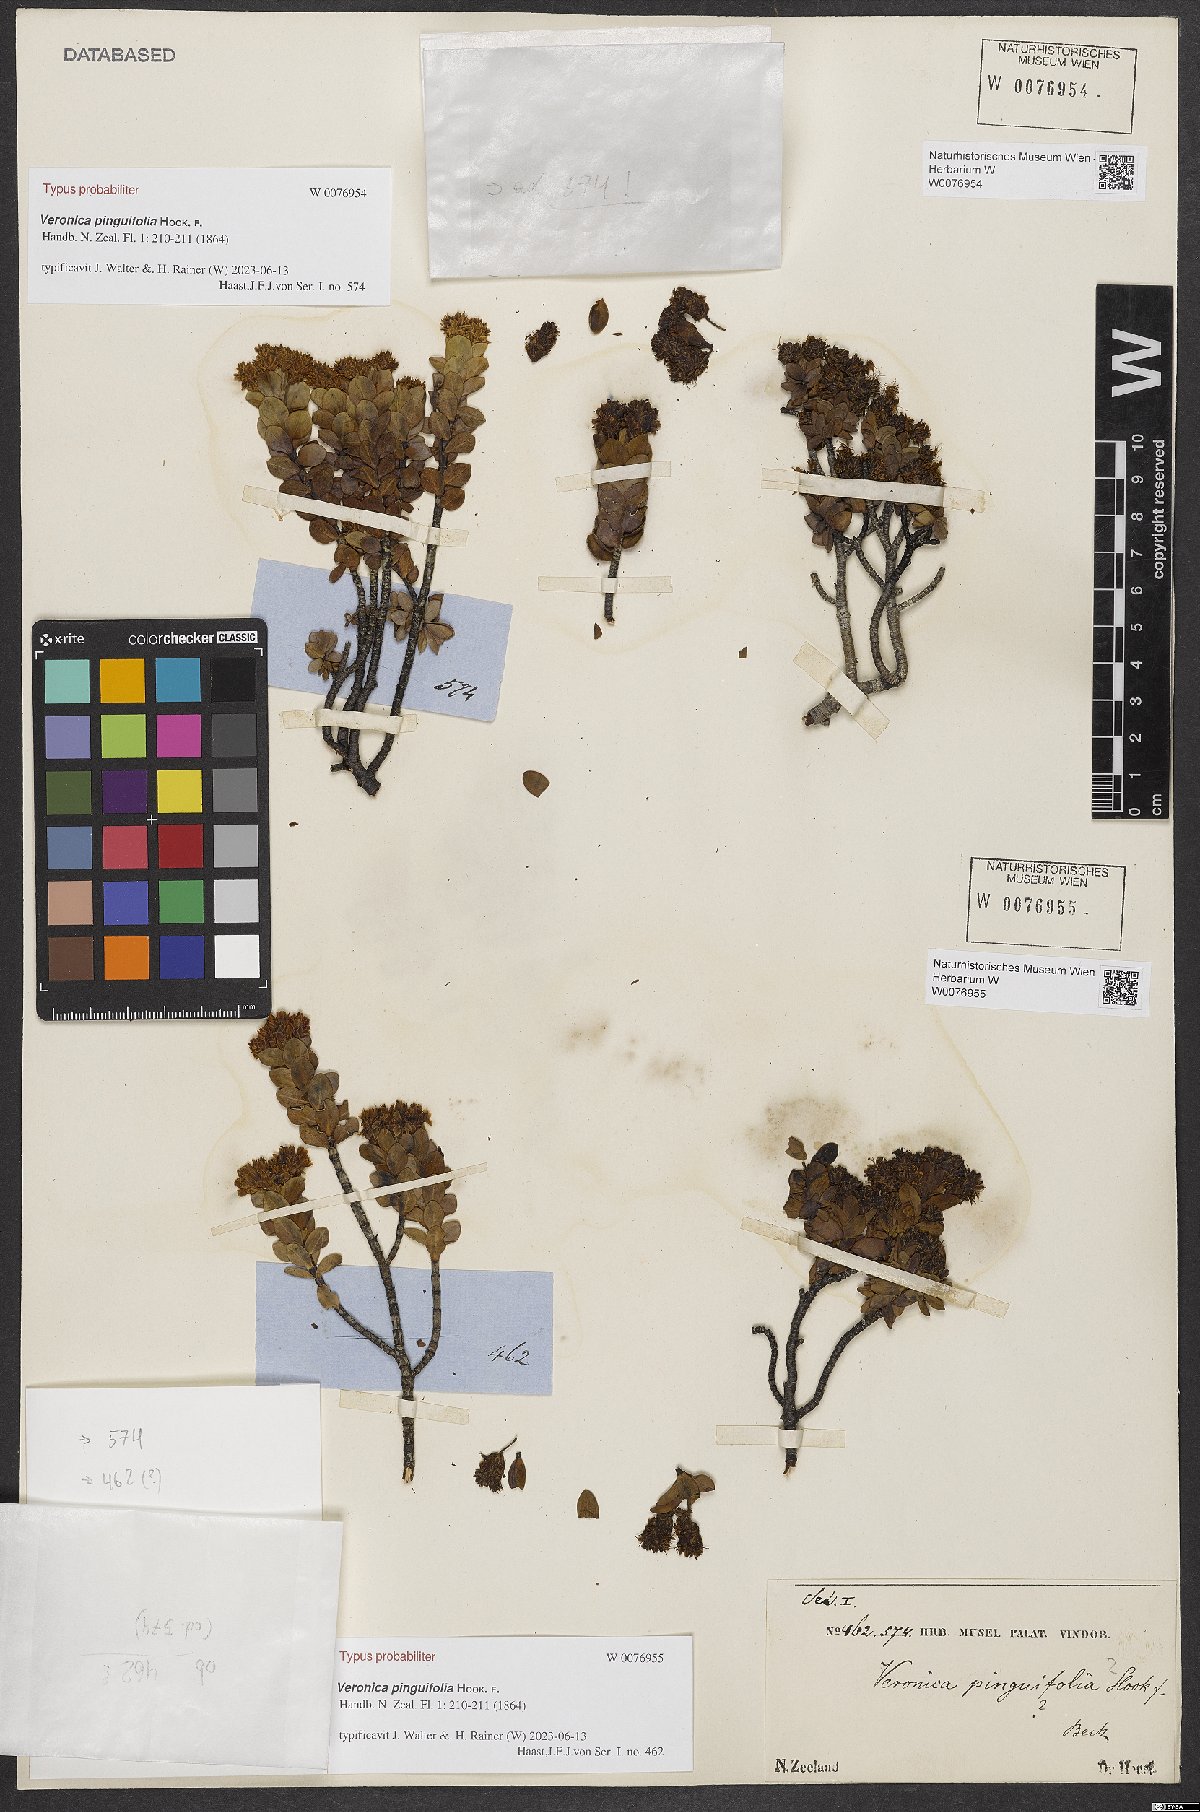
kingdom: Plantae
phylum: Tracheophyta
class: Magnoliopsida
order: Lamiales
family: Plantaginaceae
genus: Veronica
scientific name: Veronica pinguifolia
